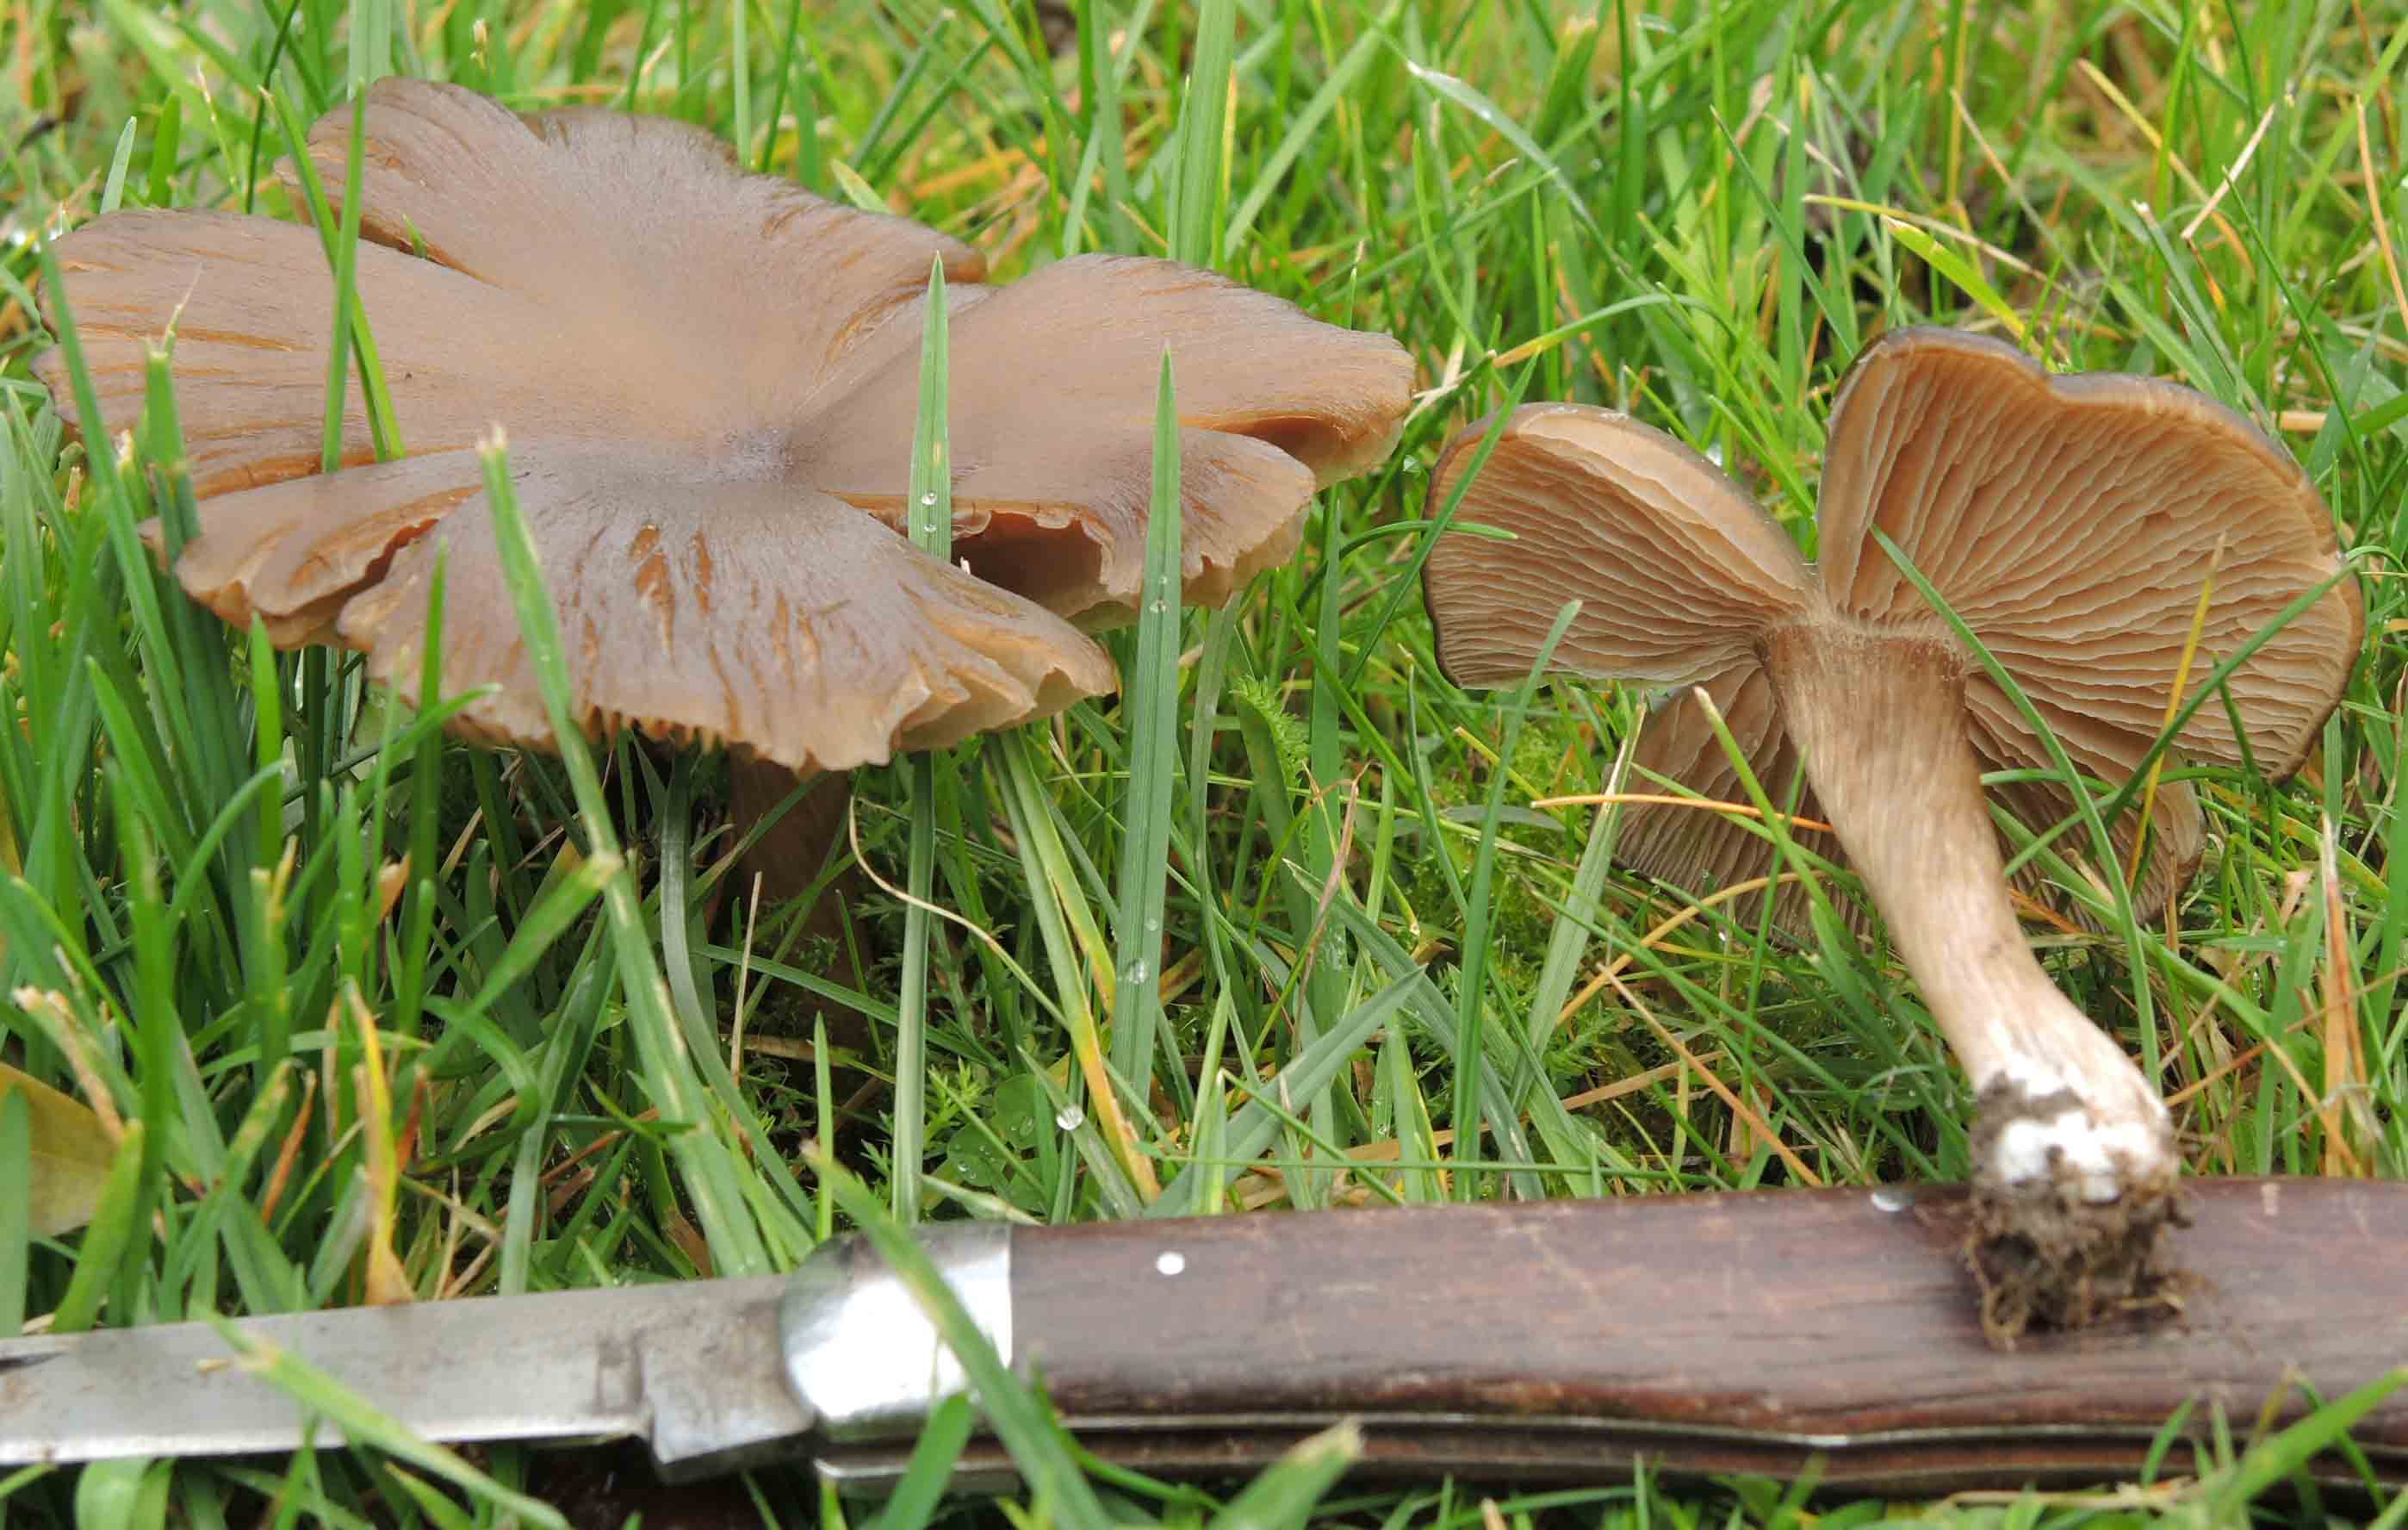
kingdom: Fungi
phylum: Basidiomycota
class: Agaricomycetes
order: Agaricales
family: Entolomataceae
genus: Entoloma
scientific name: Entoloma
